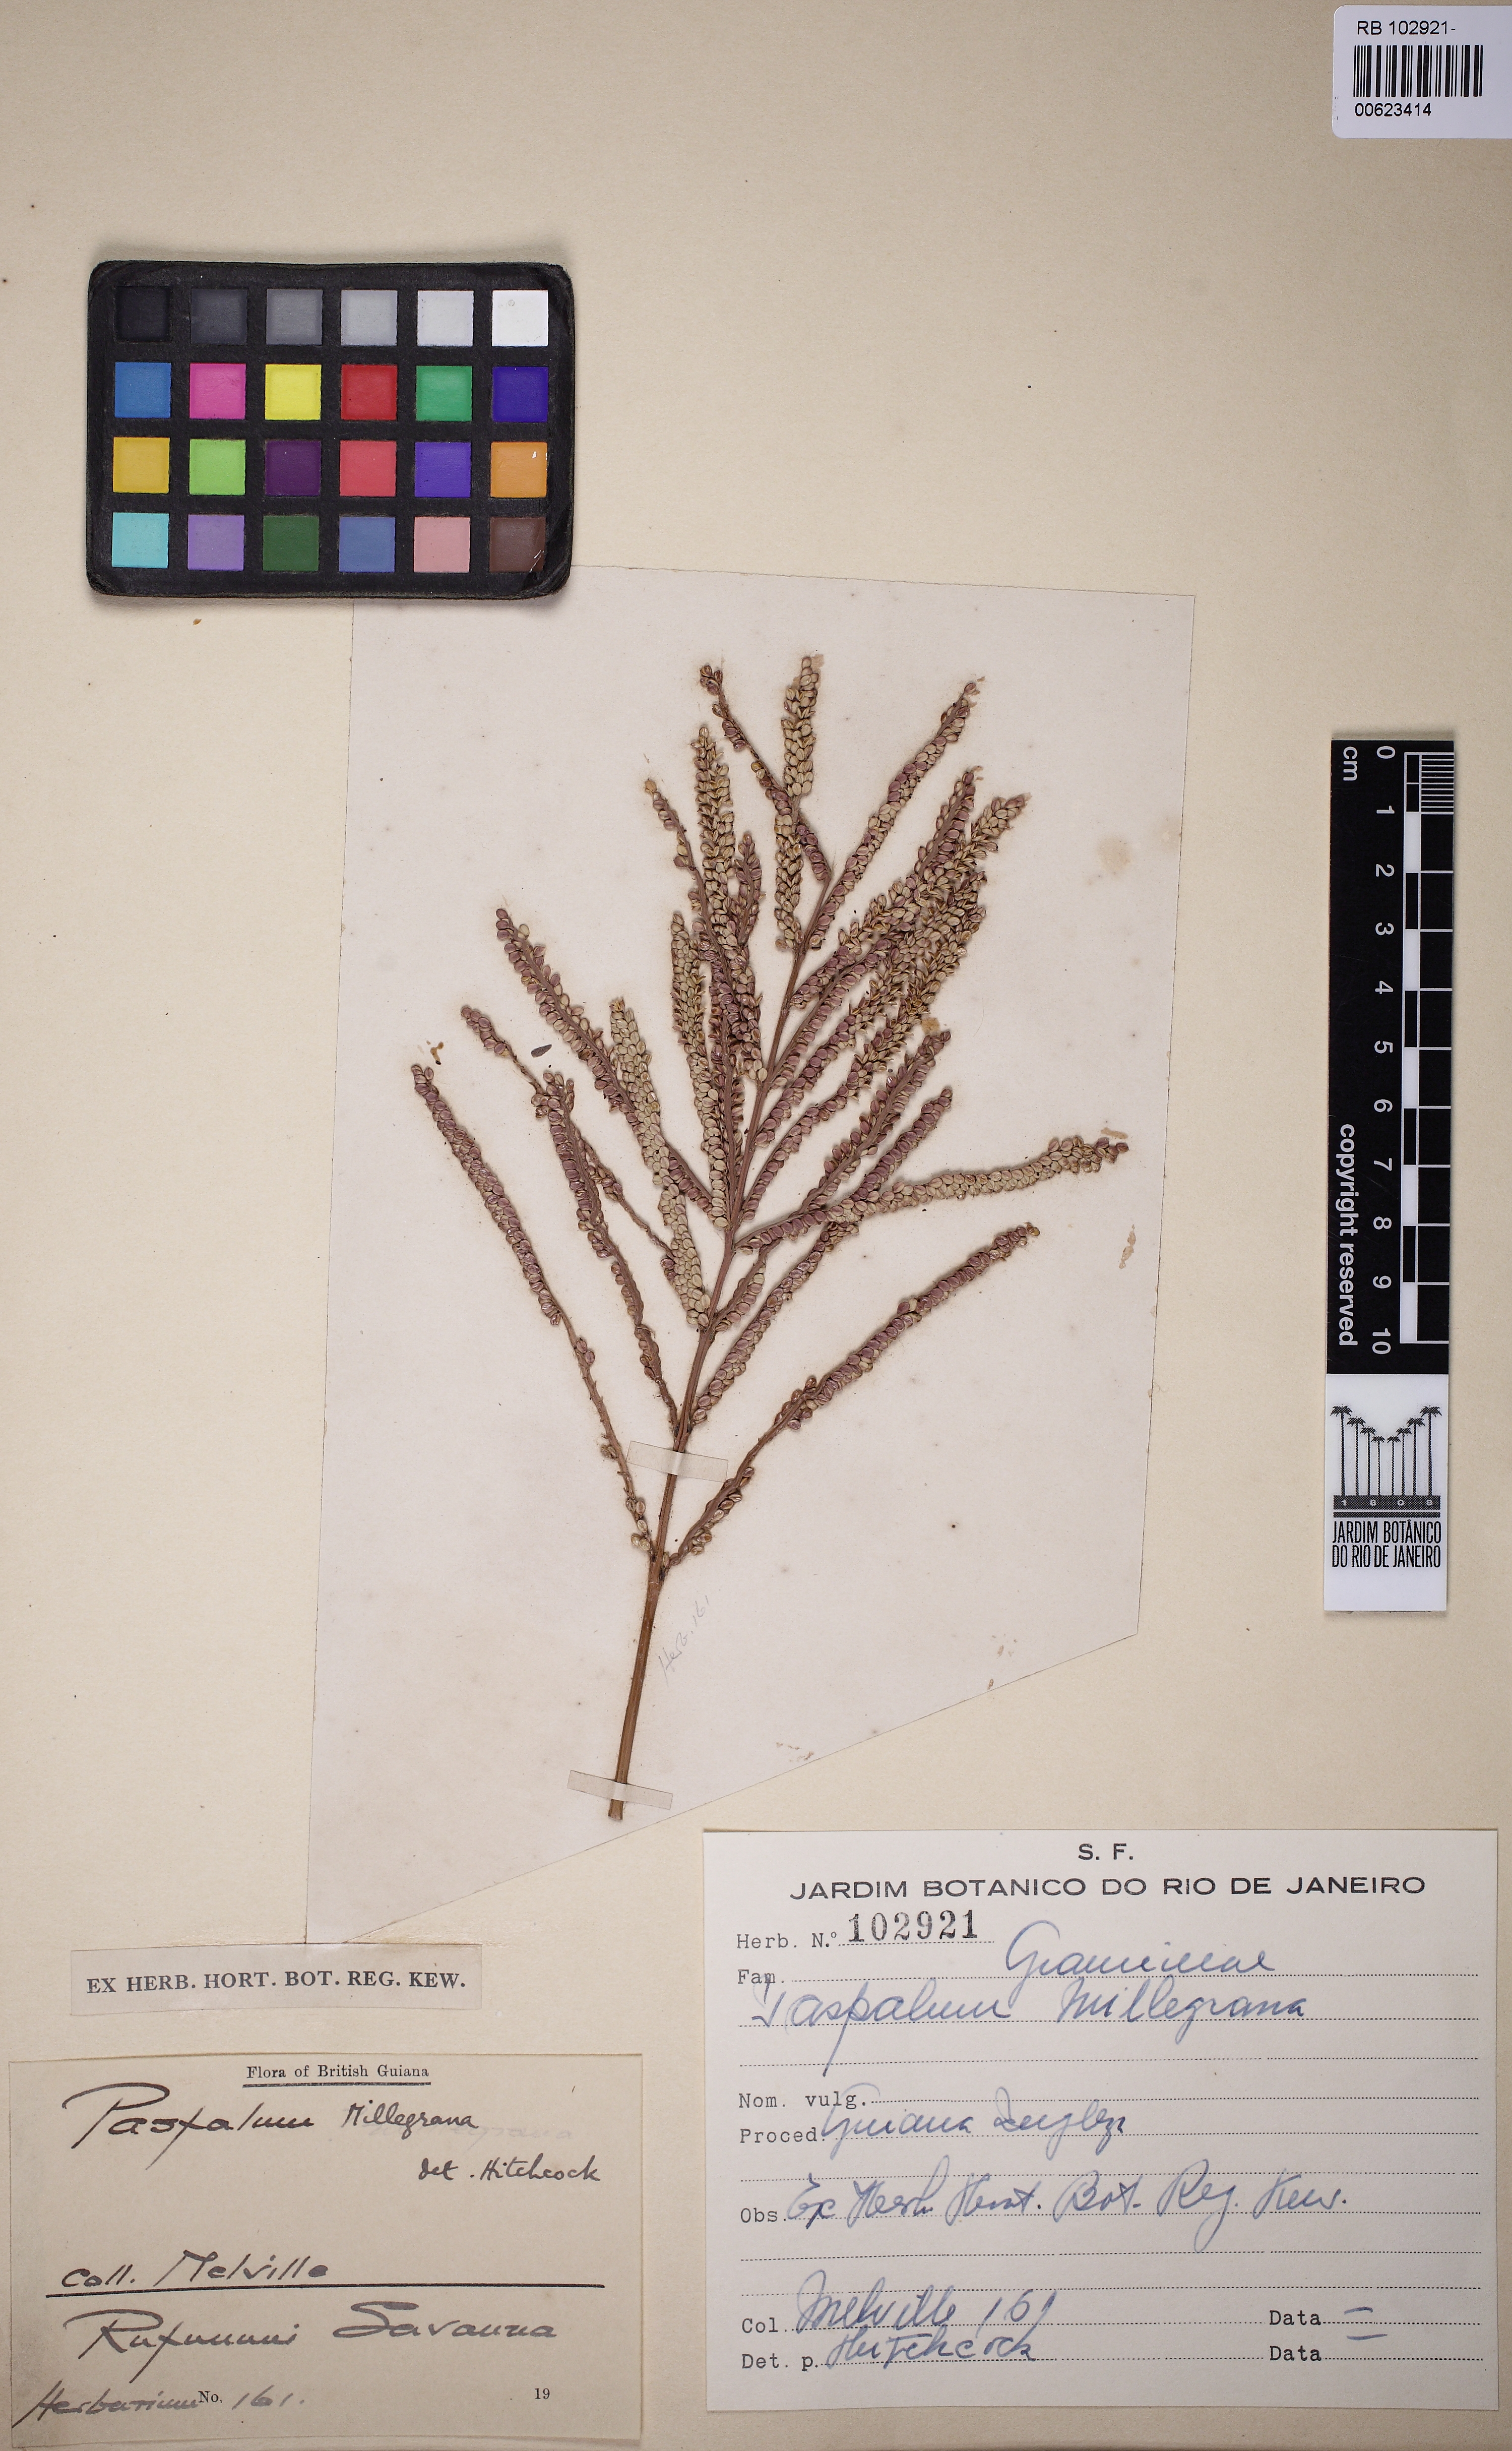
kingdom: Plantae
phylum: Tracheophyta
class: Liliopsida
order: Poales
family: Poaceae
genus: Paspalum
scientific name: Paspalum millegrana
